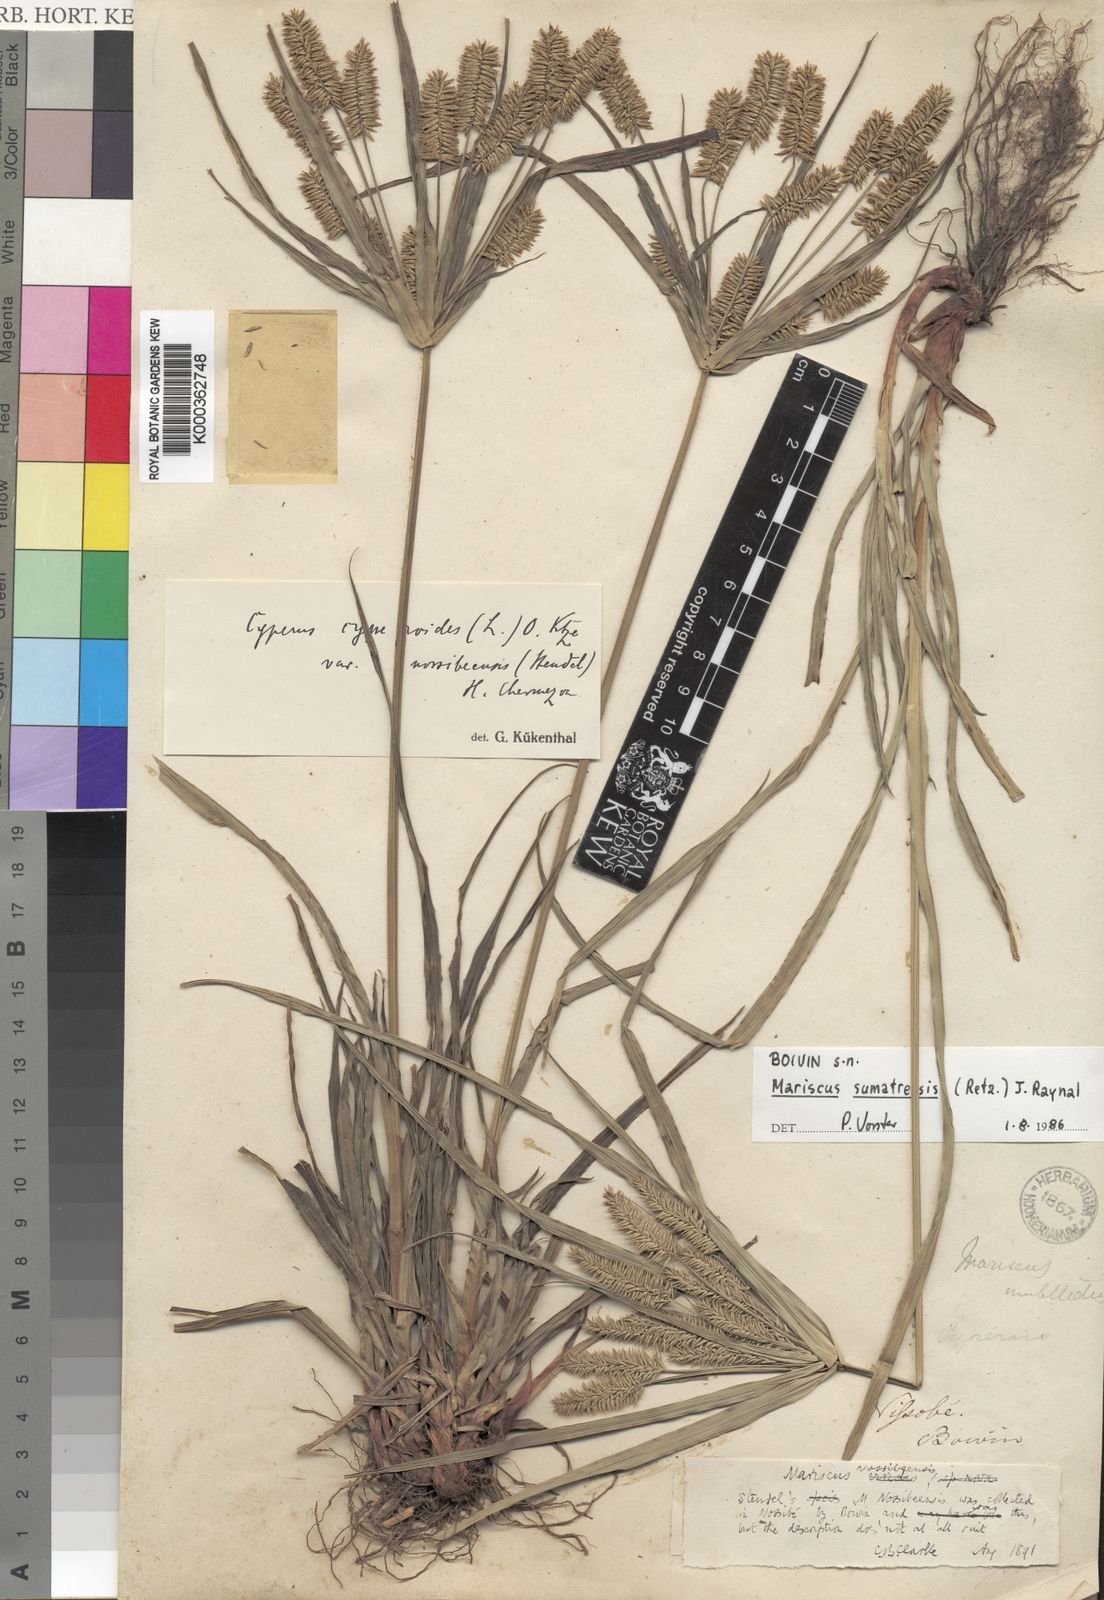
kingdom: Plantae
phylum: Tracheophyta
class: Liliopsida
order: Poales
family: Cyperaceae
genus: Cyperus
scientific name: Cyperus cyperoides
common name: Pacific island flat sedge
